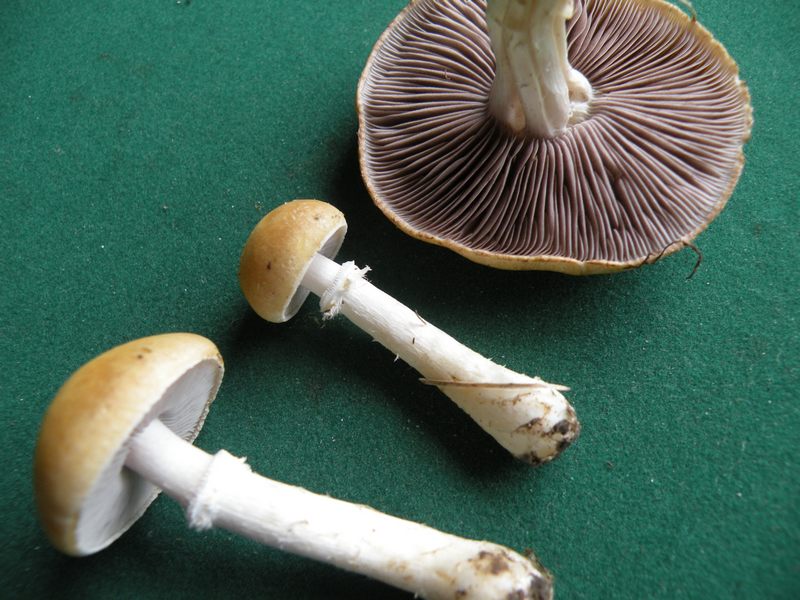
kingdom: Fungi
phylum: Basidiomycota
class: Agaricomycetes
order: Agaricales
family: Hymenogastraceae
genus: Psilocybe
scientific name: Psilocybe coronilla
